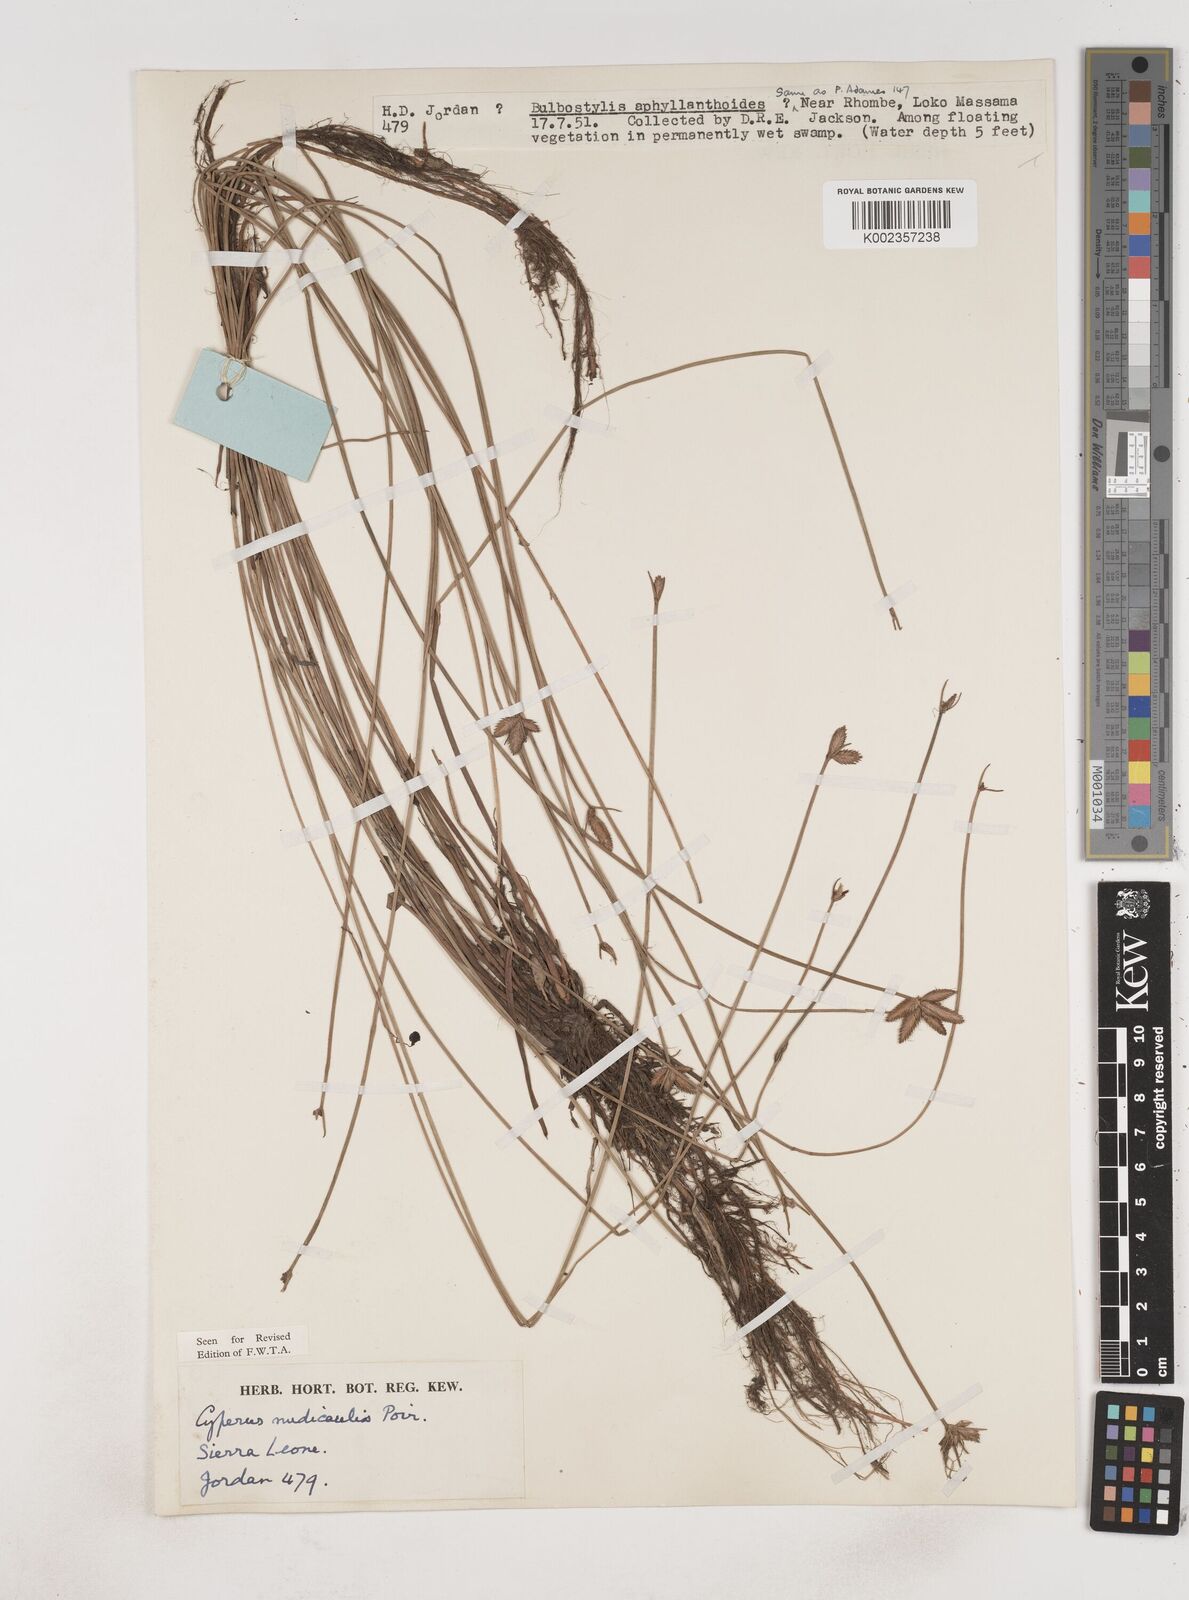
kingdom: Plantae
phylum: Tracheophyta
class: Liliopsida
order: Poales
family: Cyperaceae
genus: Cyperus
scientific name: Cyperus pectinatus
